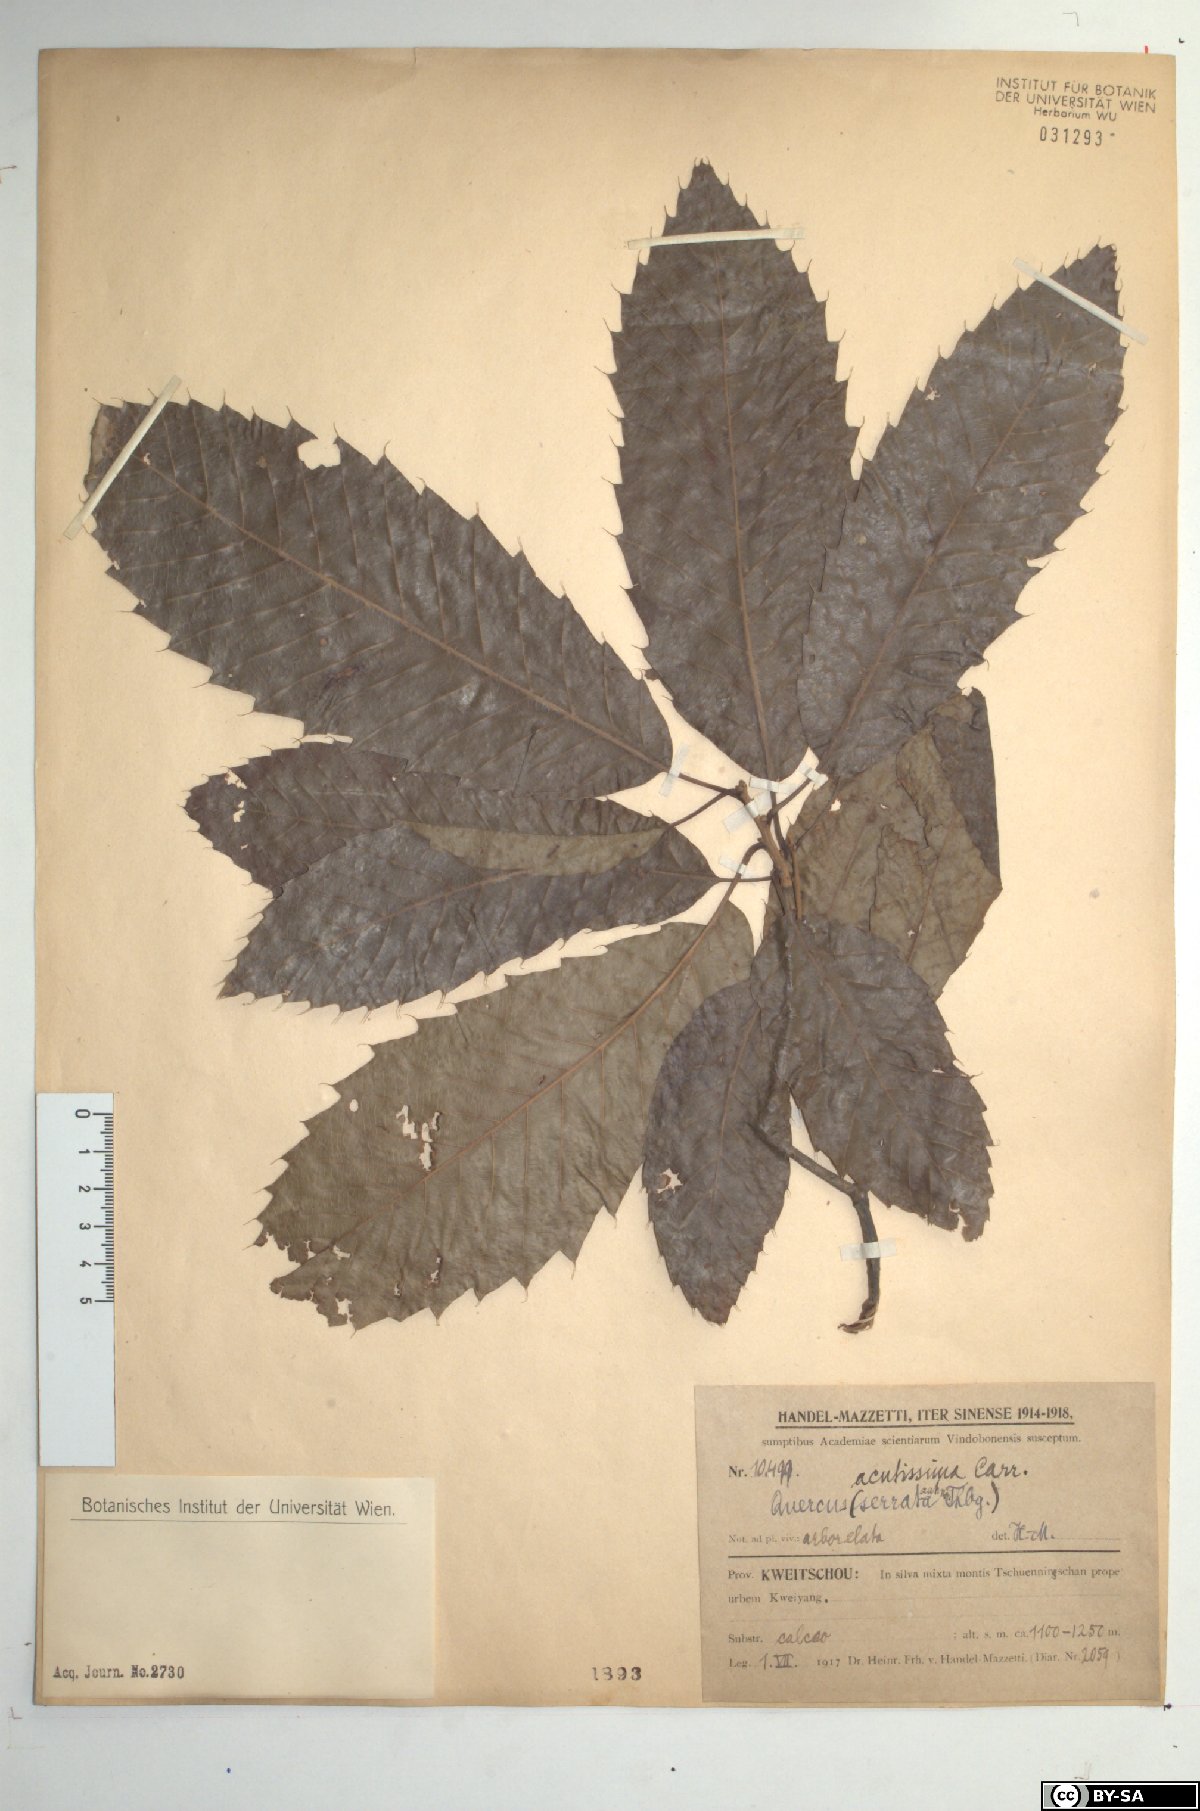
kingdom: Plantae
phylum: Tracheophyta
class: Magnoliopsida
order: Fagales
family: Fagaceae
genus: Quercus
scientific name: Quercus acutissima
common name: Sawtooth oak
